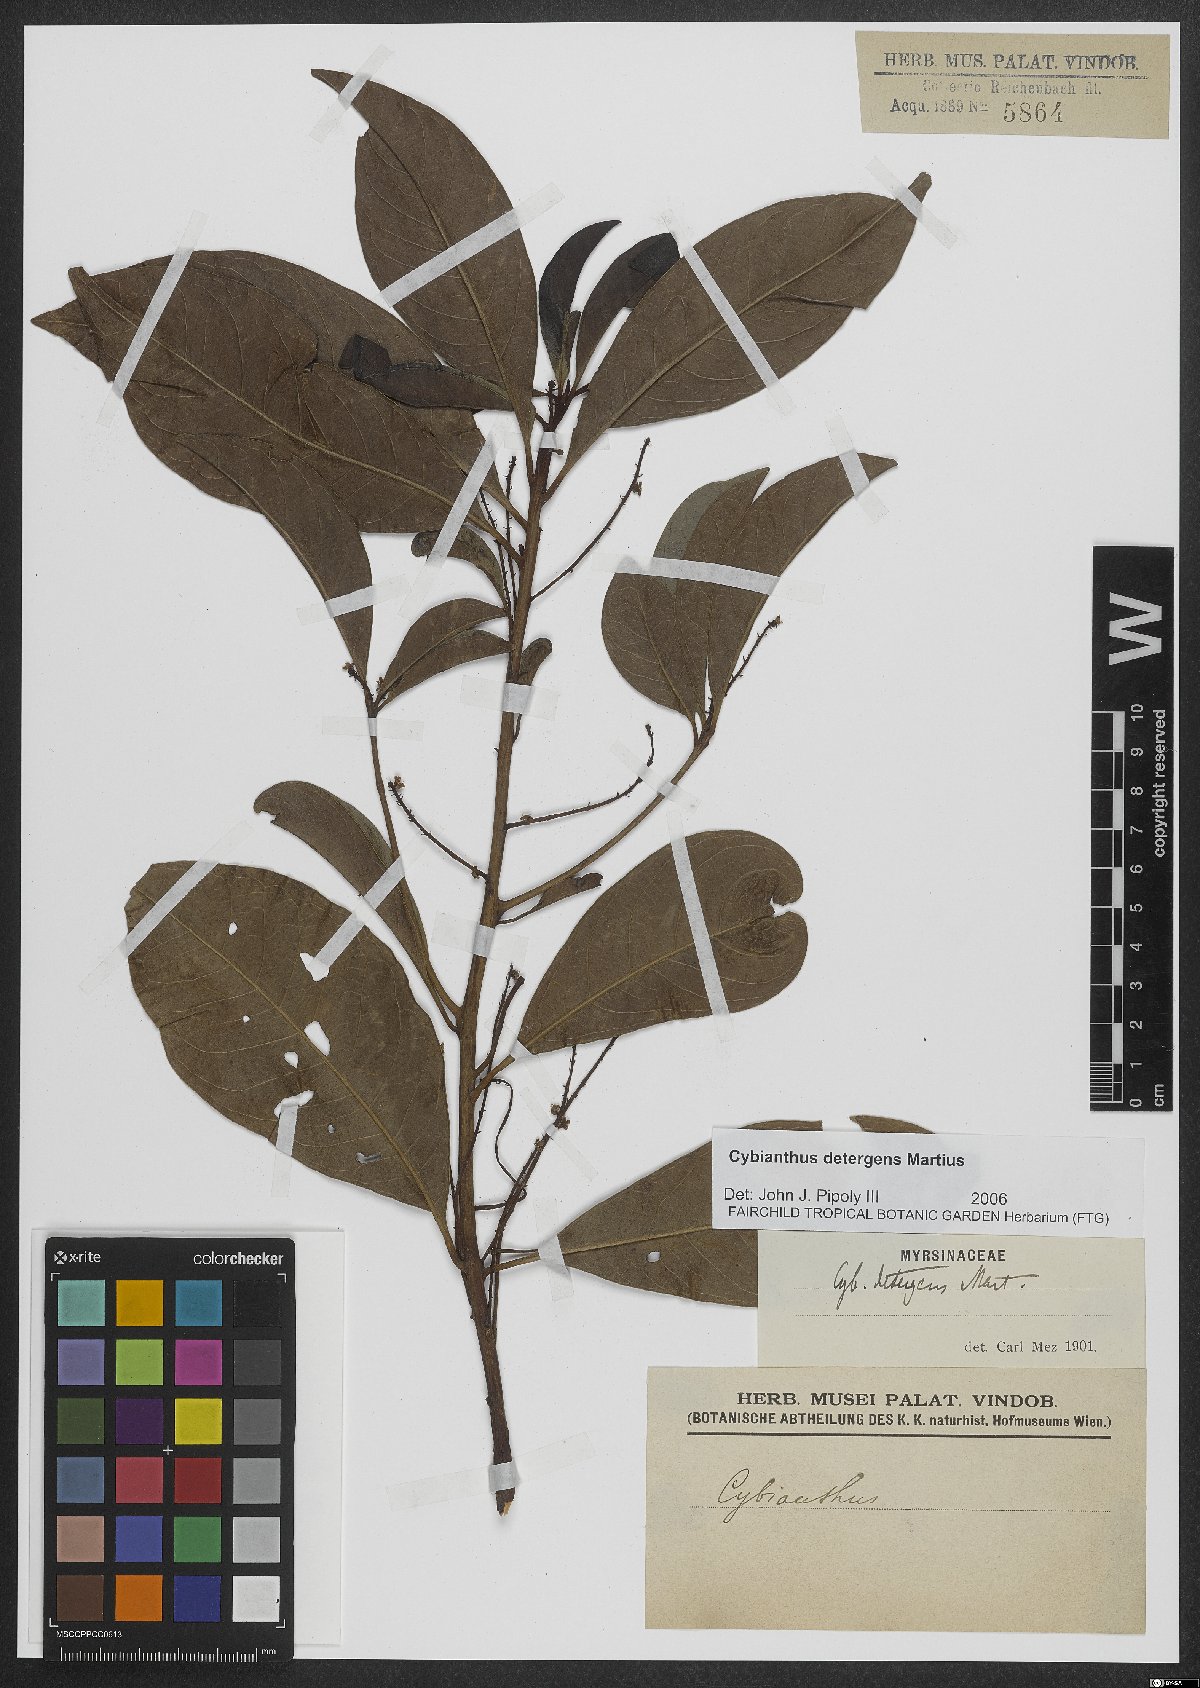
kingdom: Plantae
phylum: Tracheophyta
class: Magnoliopsida
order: Ericales
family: Primulaceae
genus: Cybianthus
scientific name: Cybianthus detergens
